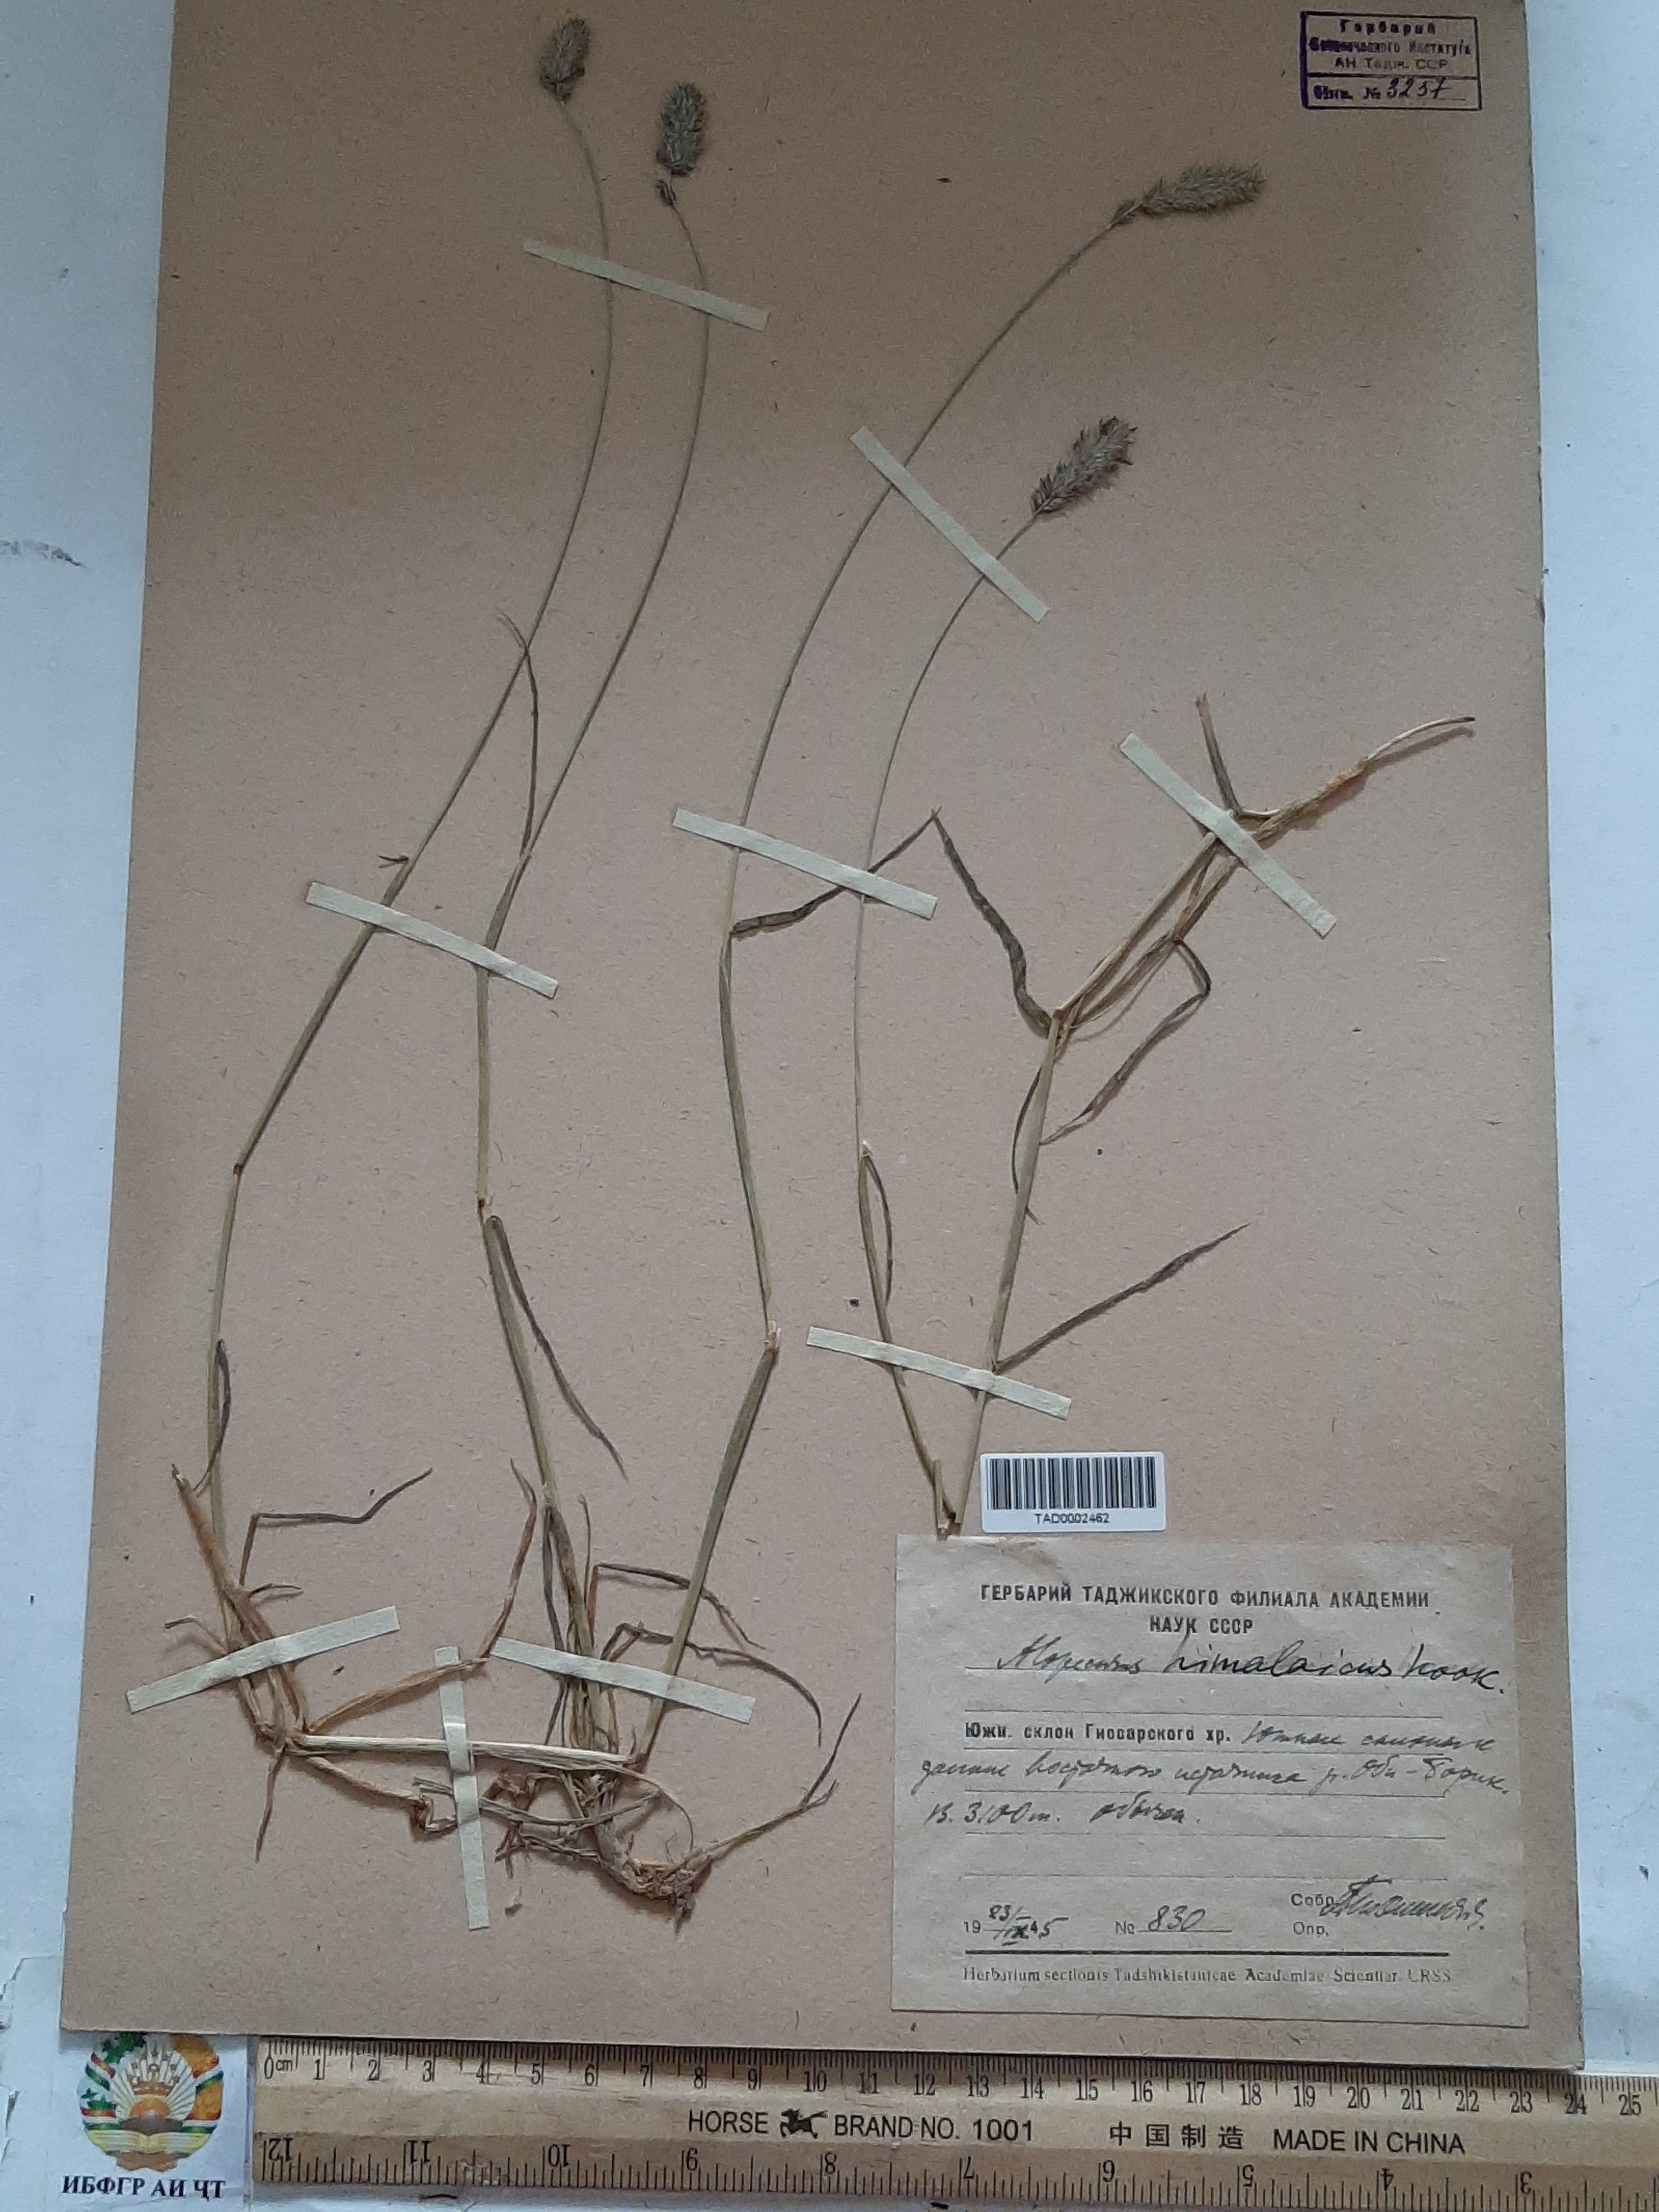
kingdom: Plantae
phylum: Tracheophyta
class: Liliopsida
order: Poales
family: Poaceae
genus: Alopecurus
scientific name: Alopecurus himalaicus
